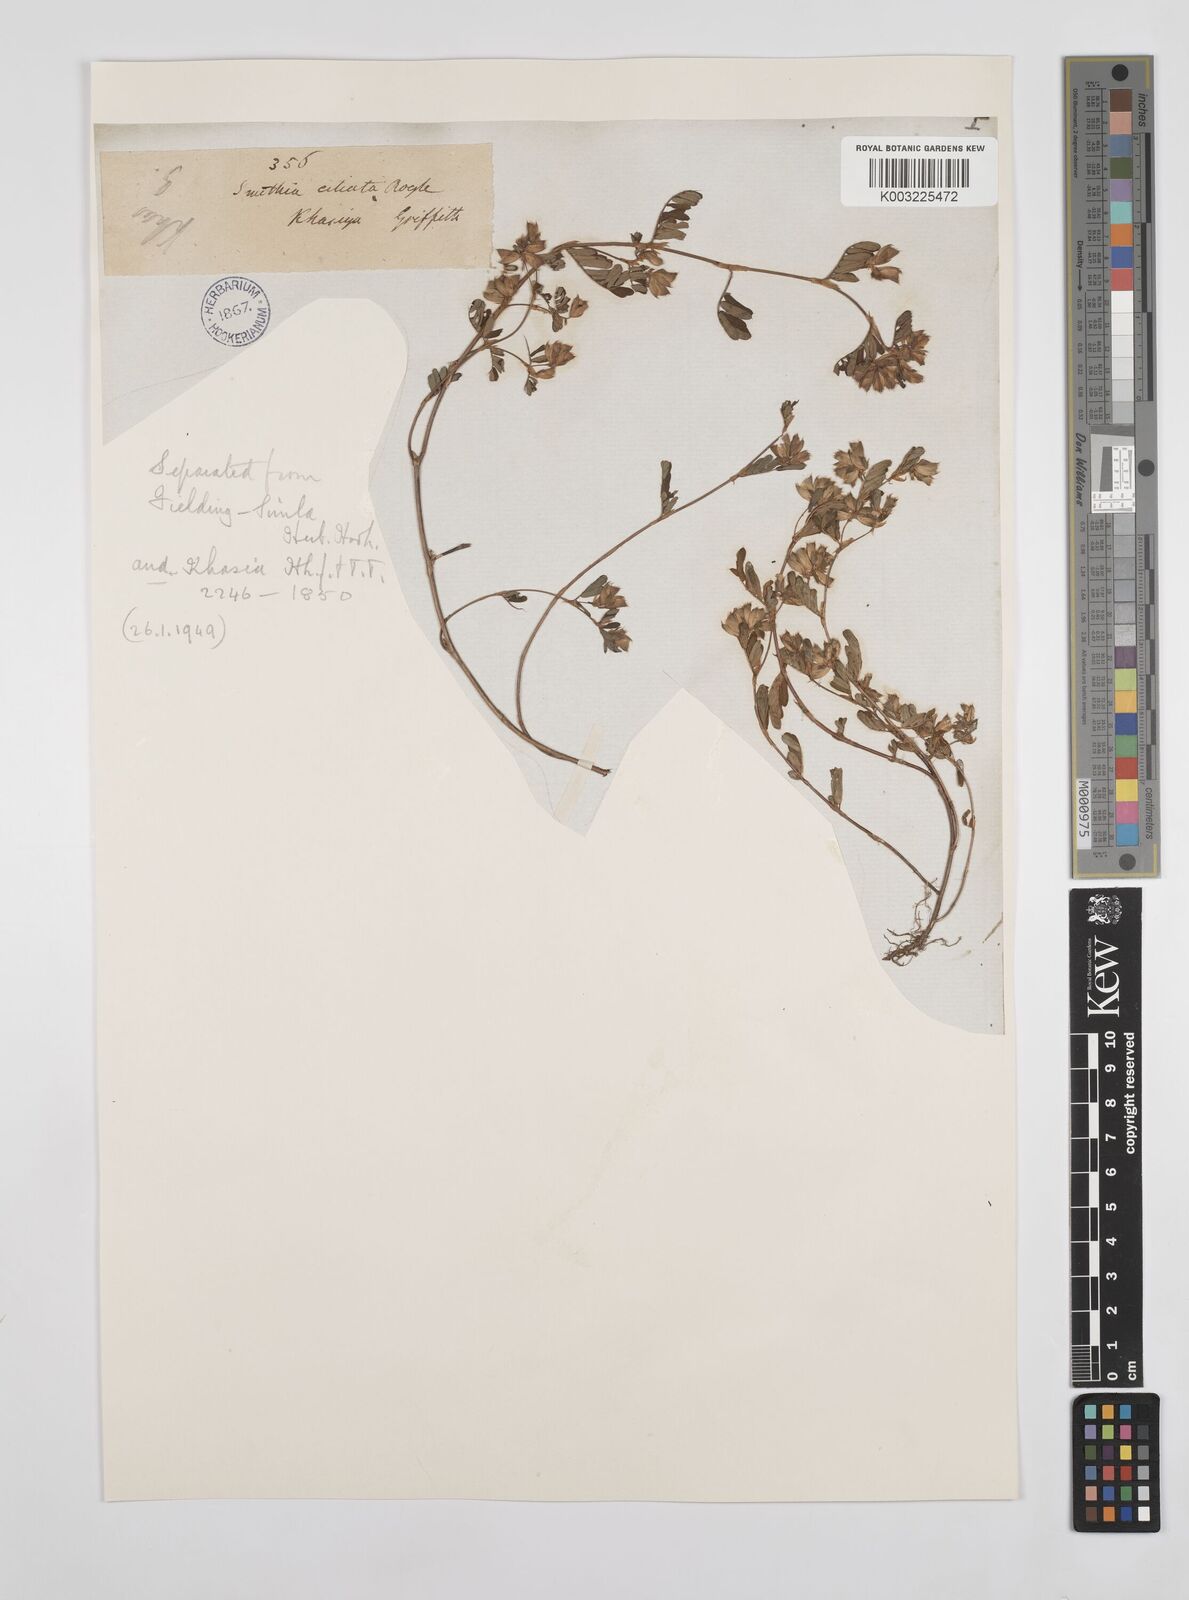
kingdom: Plantae
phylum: Tracheophyta
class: Magnoliopsida
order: Fabales
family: Fabaceae
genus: Smithia
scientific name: Smithia ciliata
